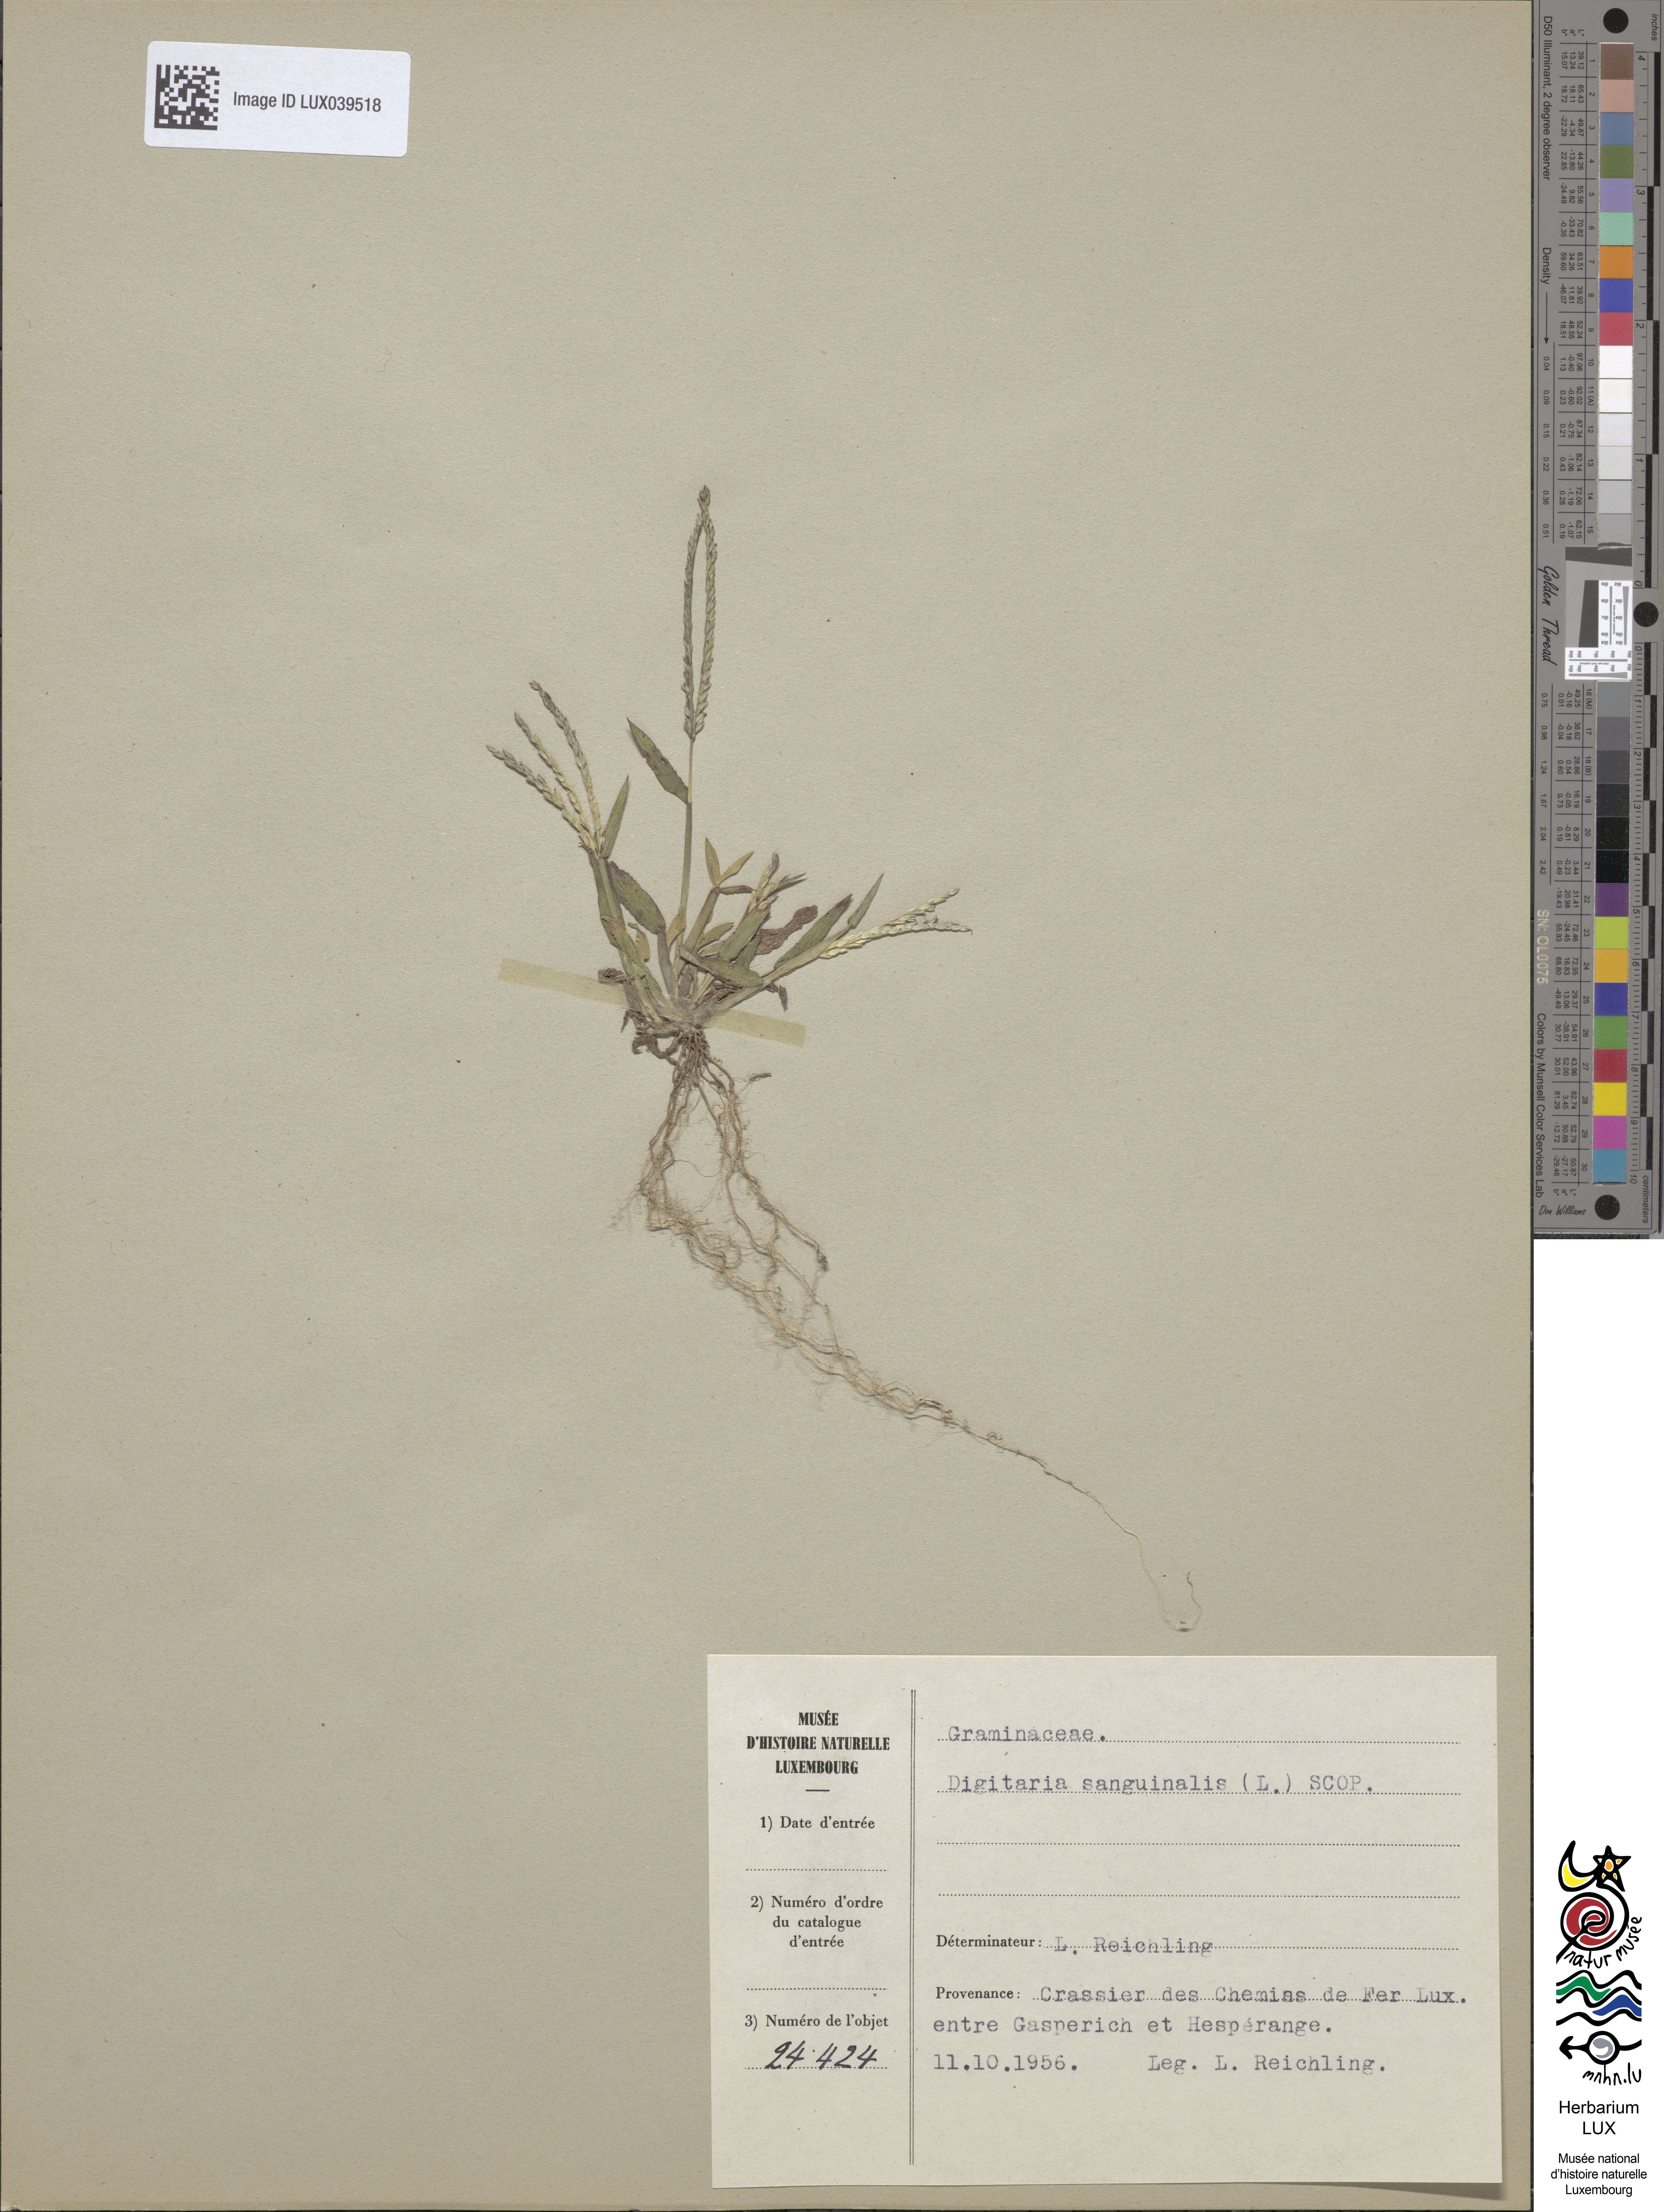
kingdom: Plantae
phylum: Tracheophyta
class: Liliopsida
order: Poales
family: Poaceae
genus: Digitaria
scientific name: Digitaria sanguinalis
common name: Hairy crabgrass
